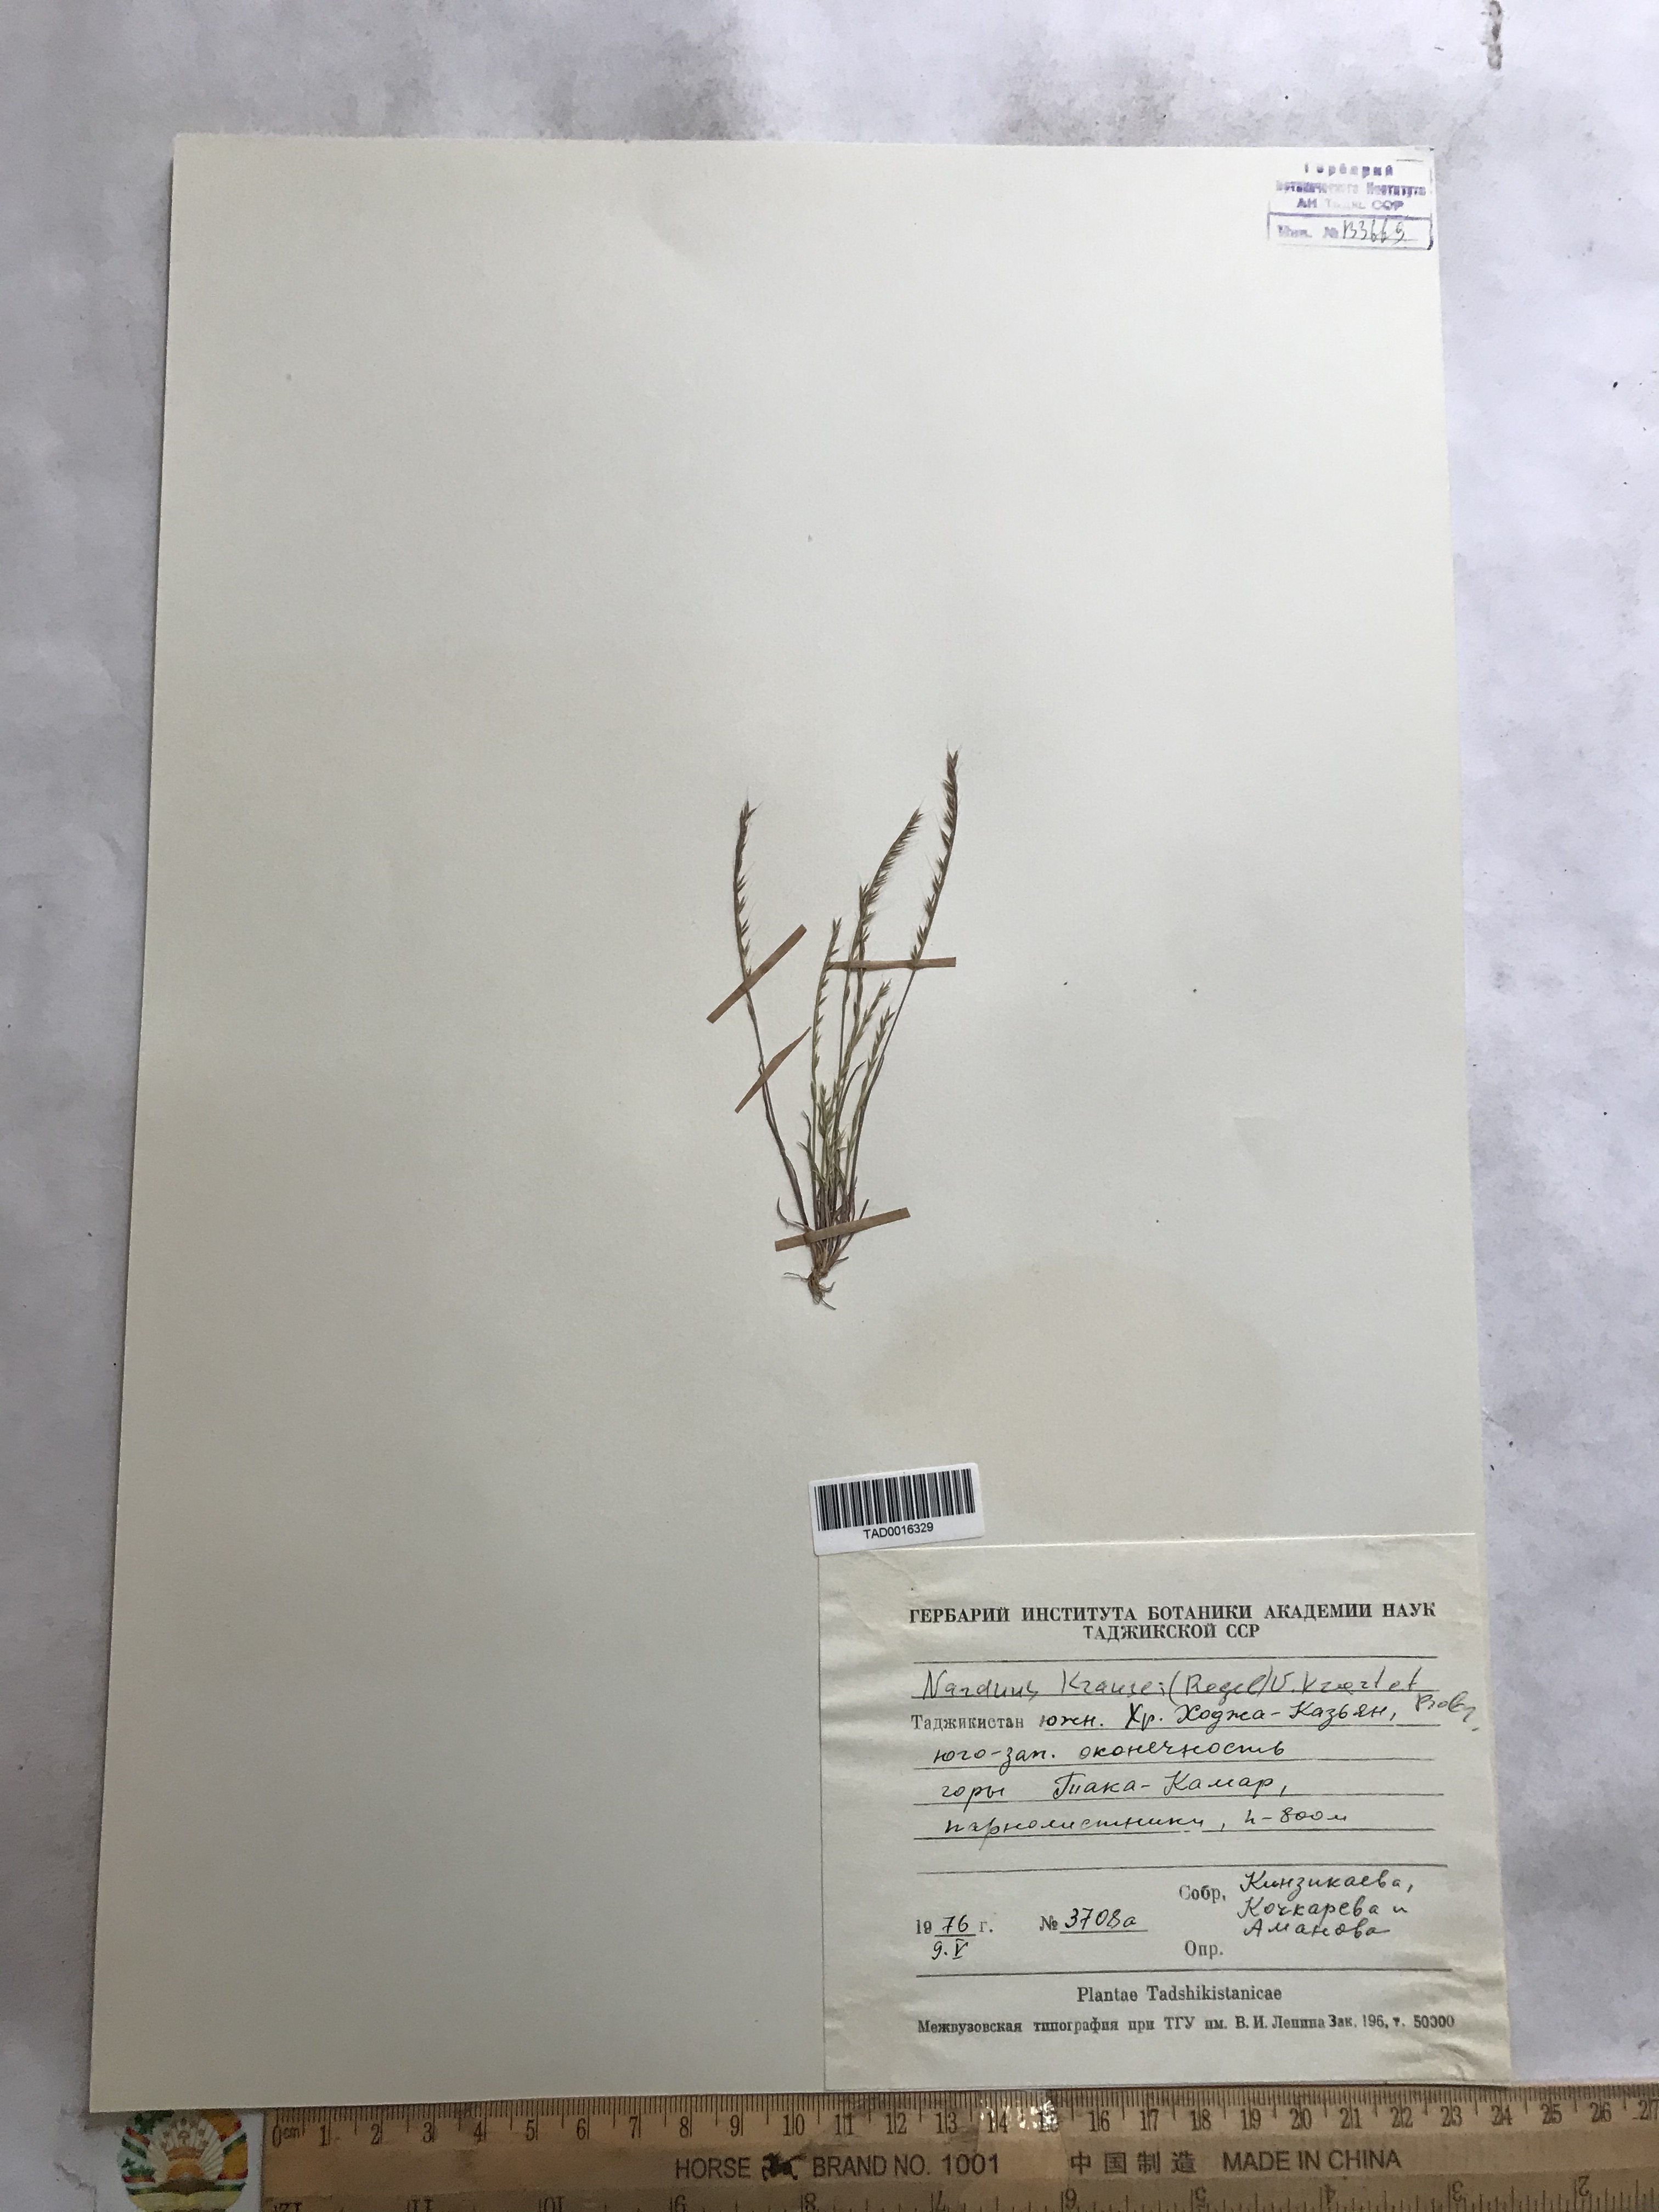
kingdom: Plantae
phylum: Tracheophyta
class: Liliopsida
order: Poales
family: Poaceae
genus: Festuca
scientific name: Festuca maritima
